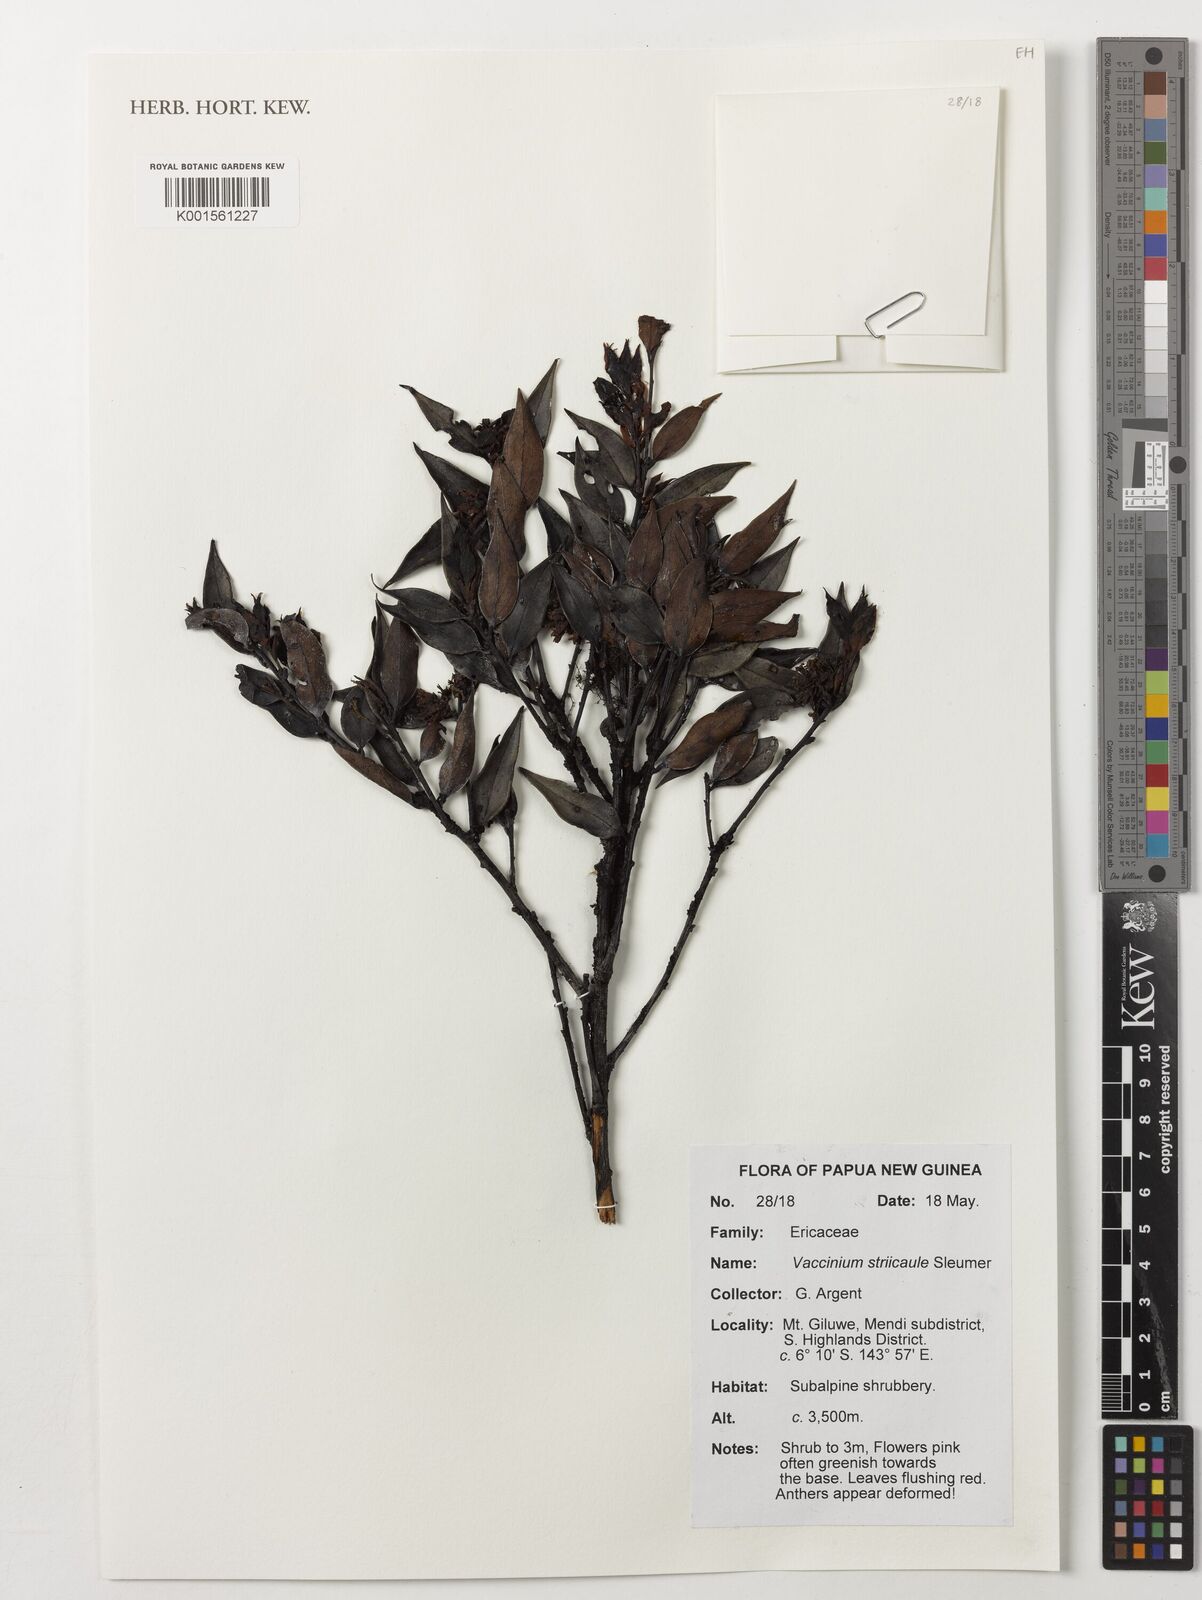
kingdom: Plantae
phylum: Tracheophyta
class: Magnoliopsida
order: Ericales
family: Ericaceae
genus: Vaccinium
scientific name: Vaccinium striicaule
